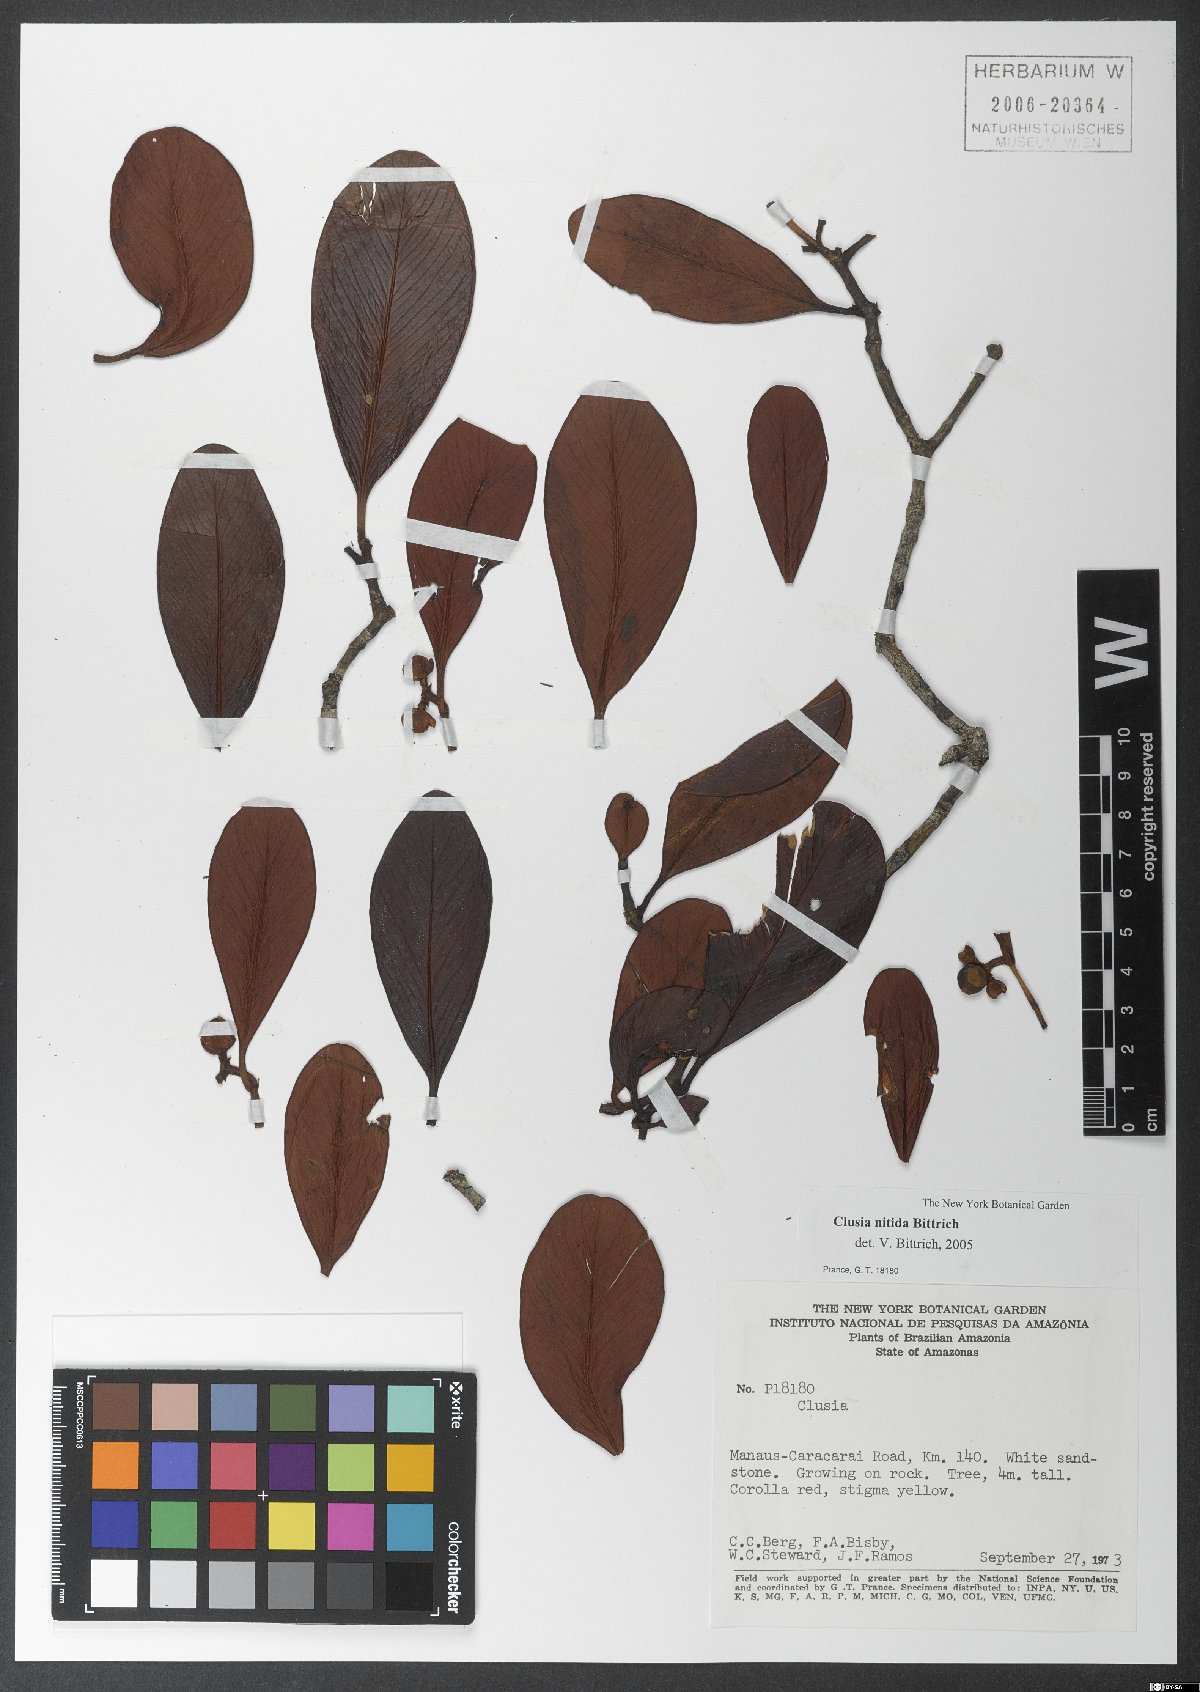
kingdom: Plantae
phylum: Tracheophyta
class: Magnoliopsida
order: Malpighiales
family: Clusiaceae
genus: Clusia
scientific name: Clusia nitida
